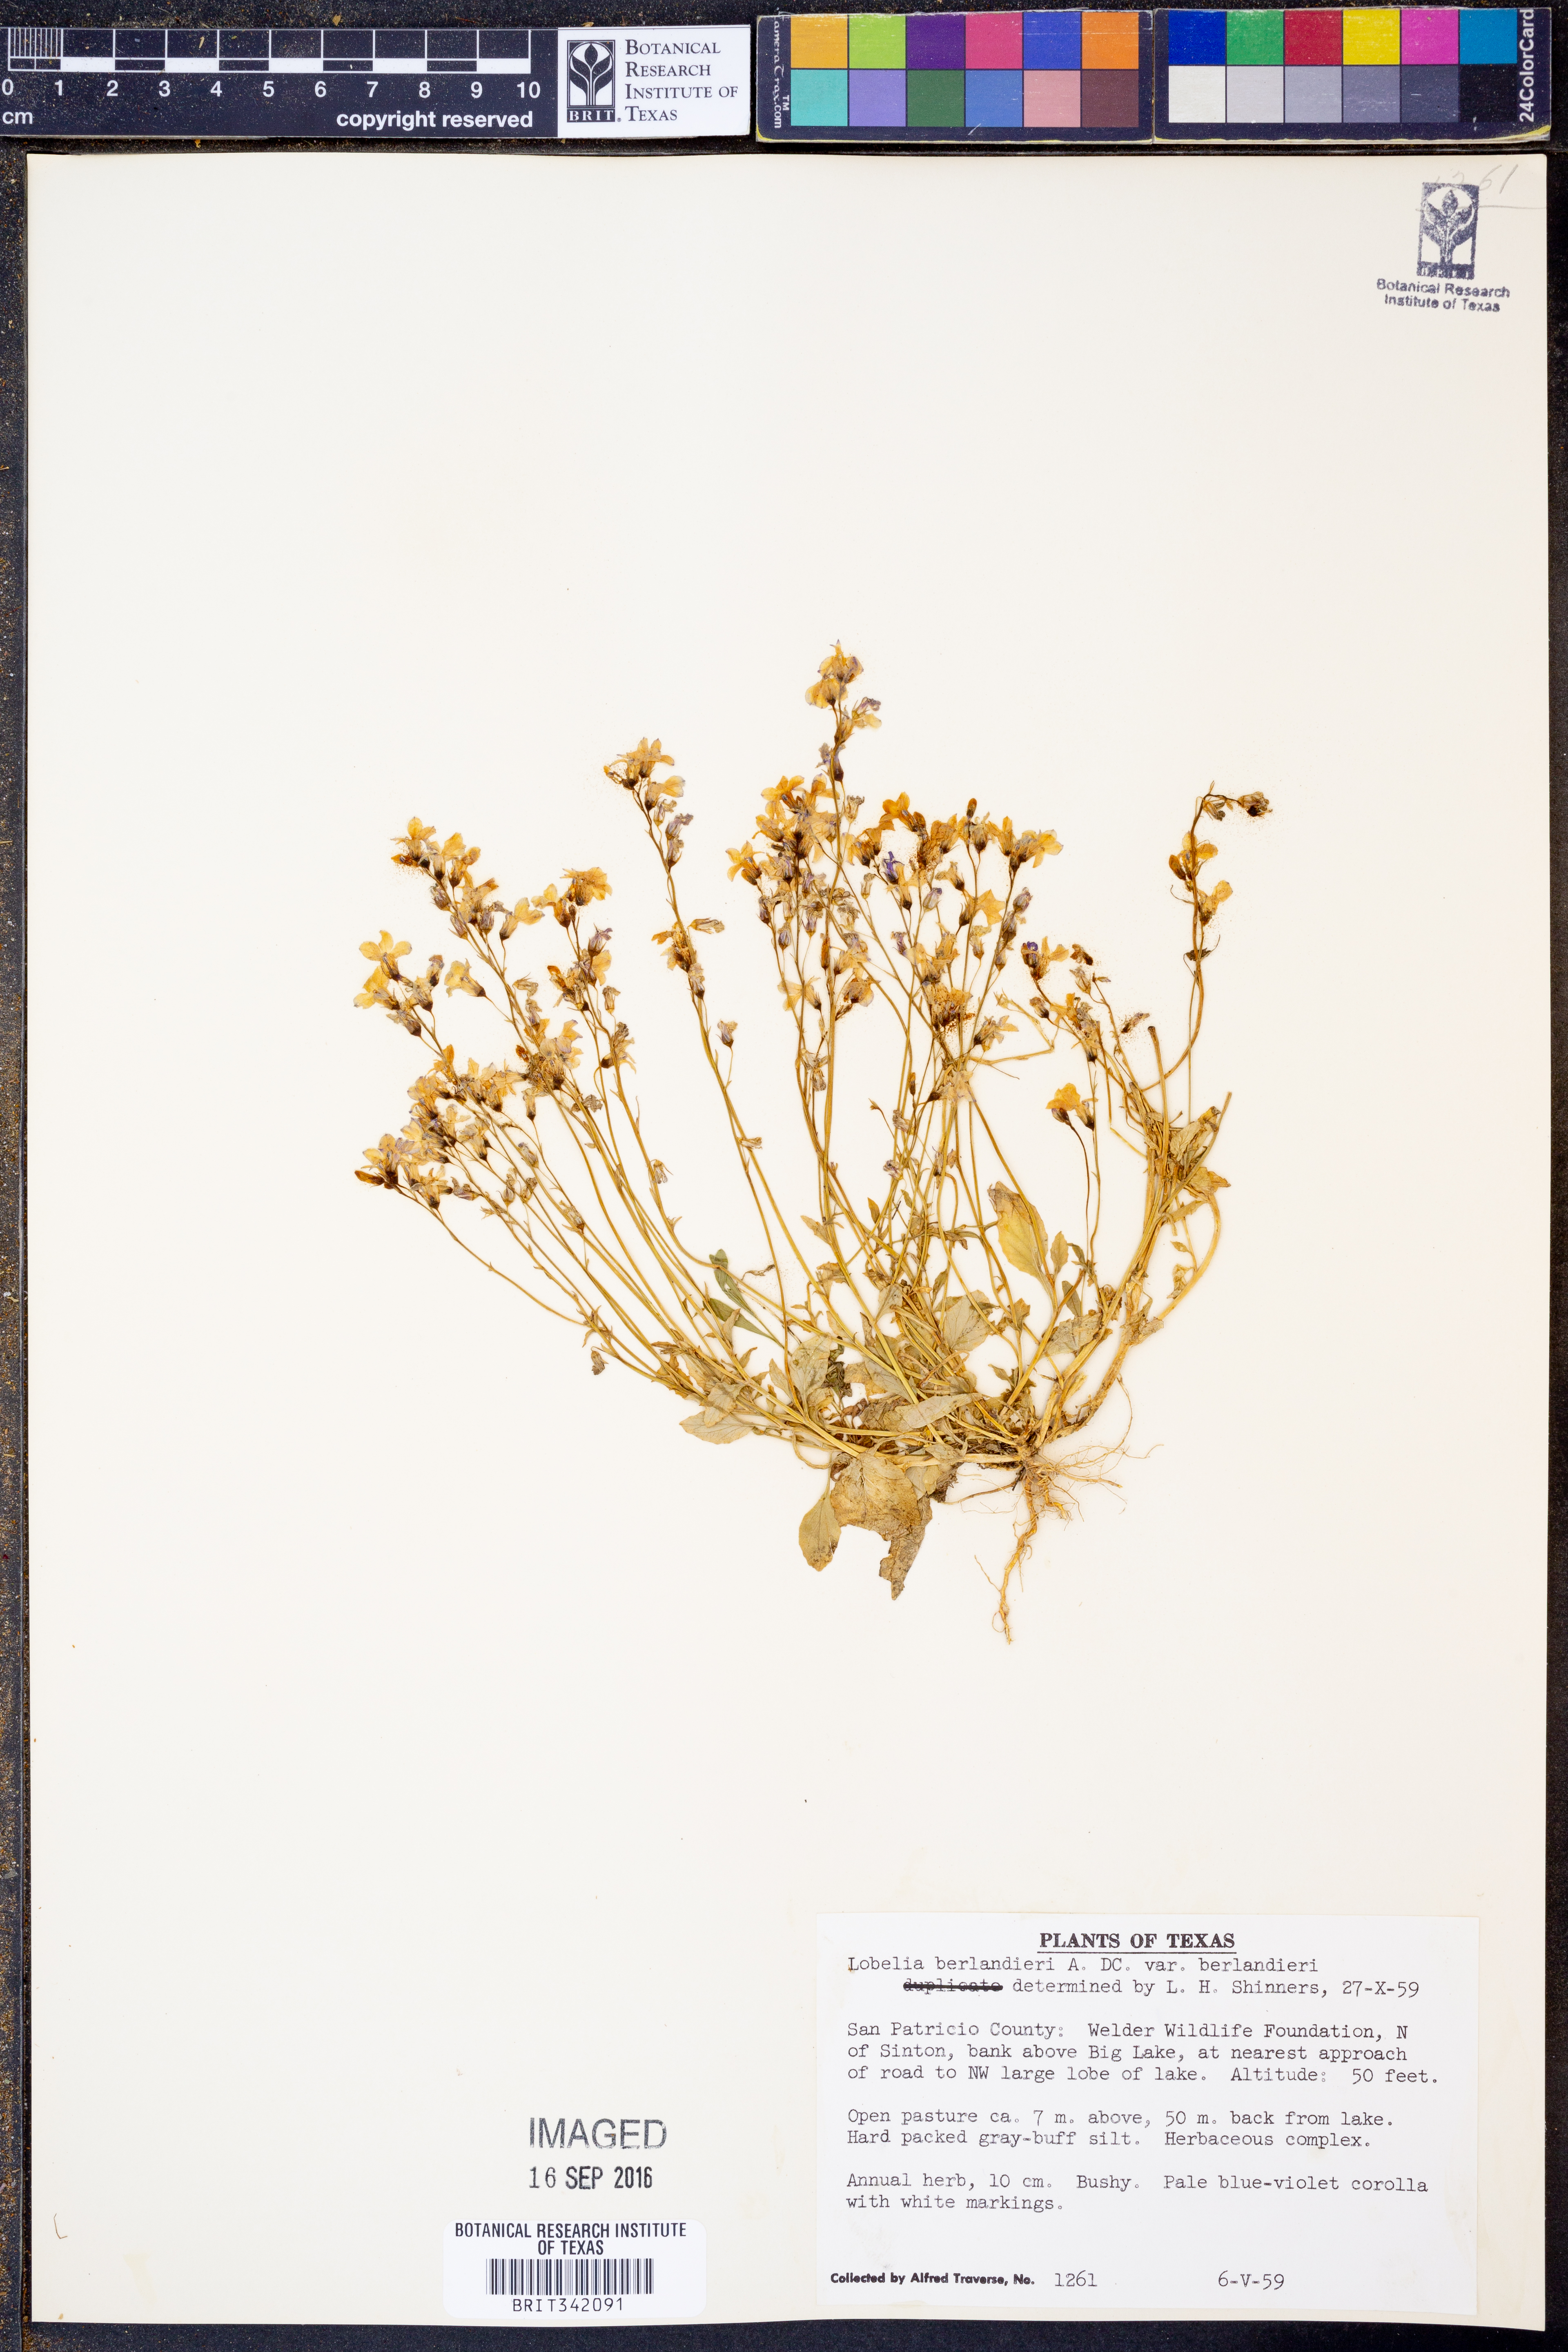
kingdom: Plantae
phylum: Tracheophyta
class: Magnoliopsida
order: Asterales
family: Campanulaceae
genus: Lobelia
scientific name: Lobelia berlandieri
